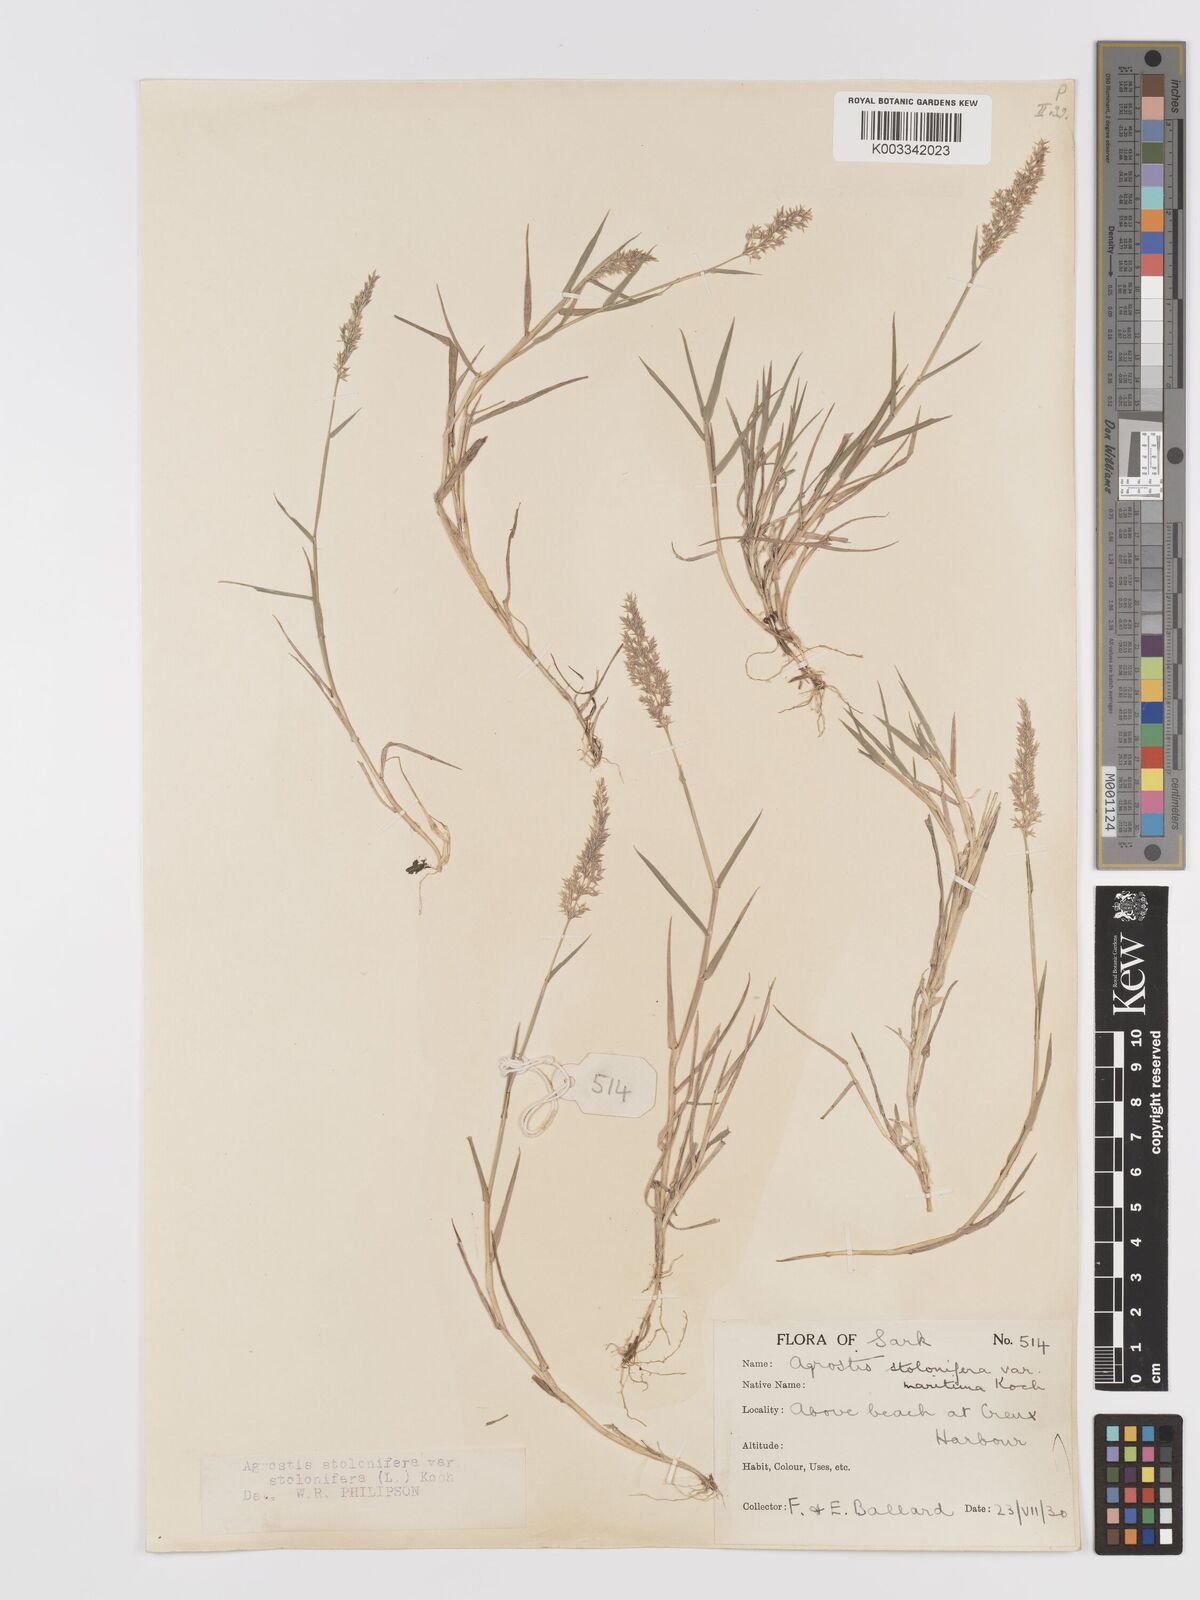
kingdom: Plantae
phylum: Tracheophyta
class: Liliopsida
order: Poales
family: Poaceae
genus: Agrostis
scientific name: Agrostis stolonifera
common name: Creeping bentgrass
